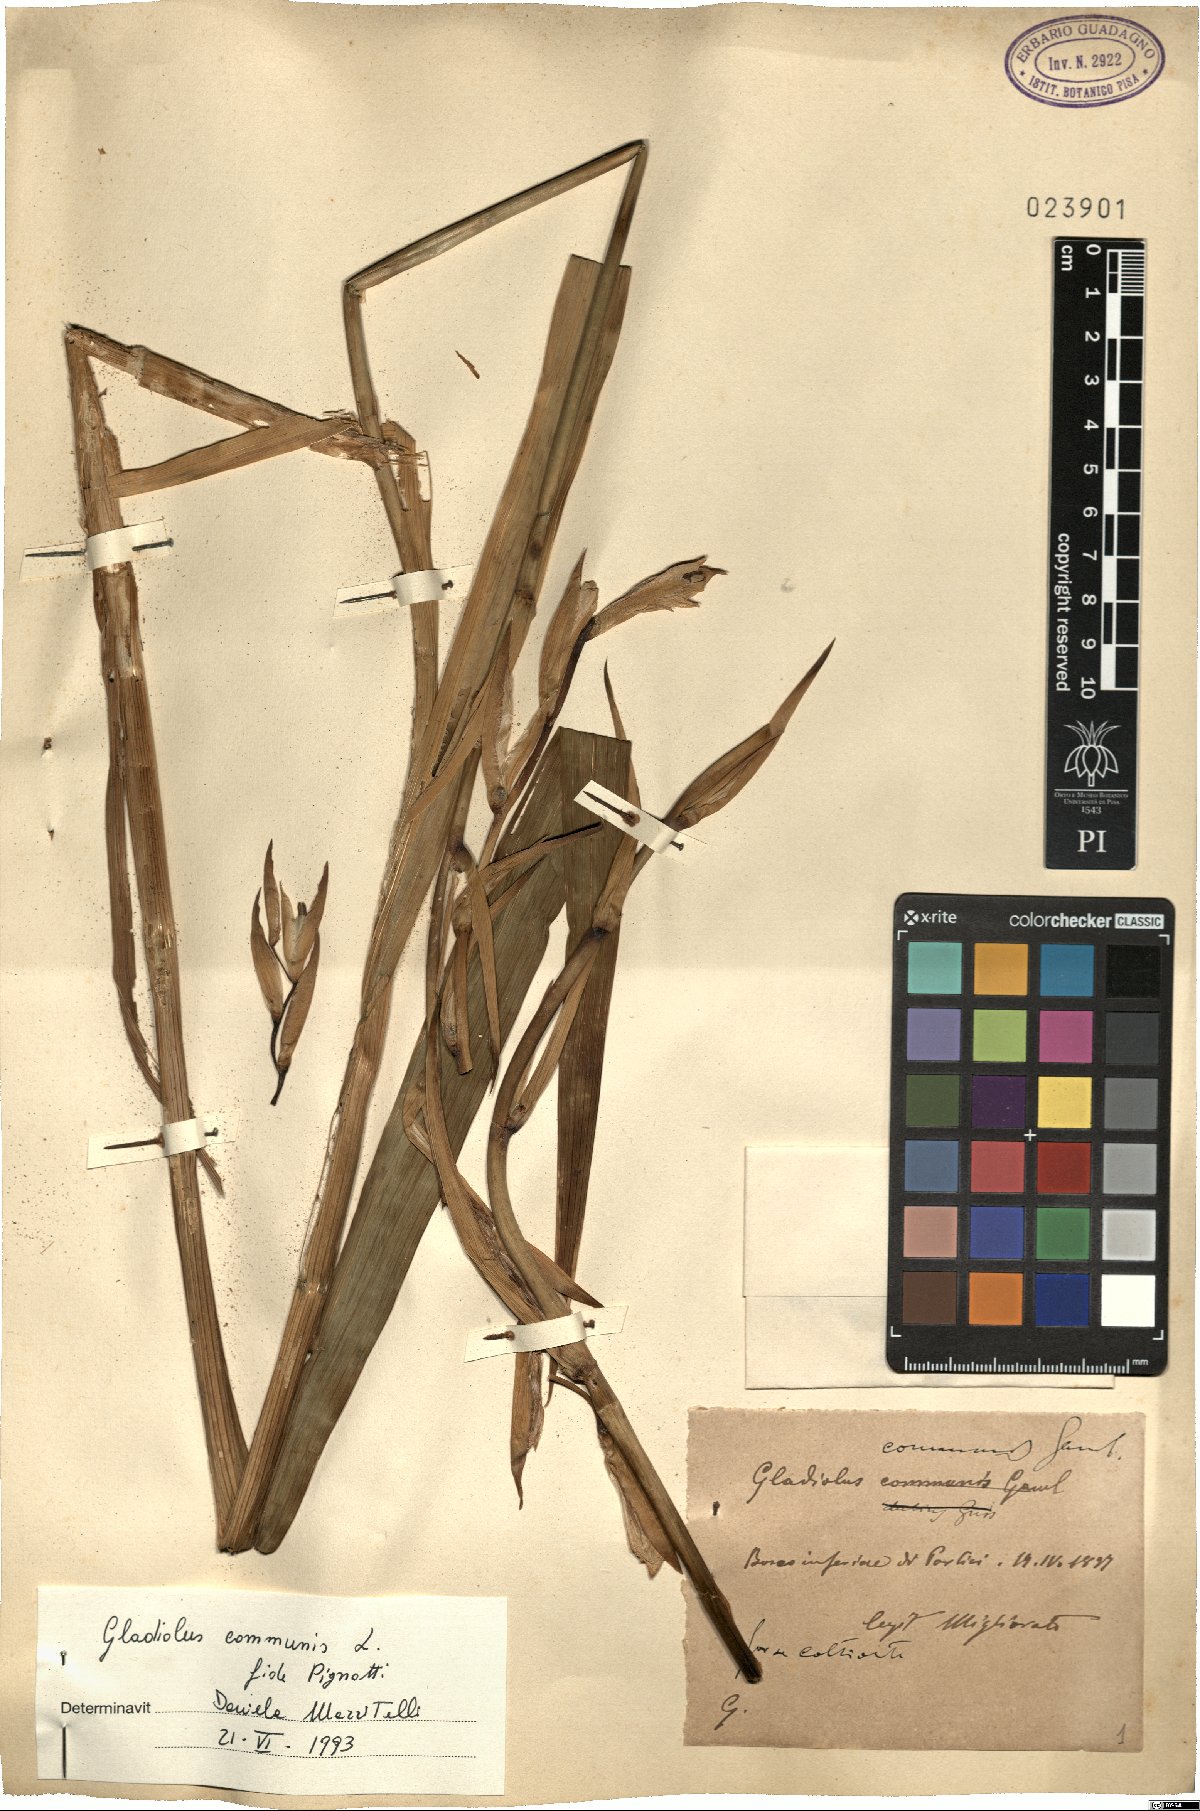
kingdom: Plantae
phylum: Tracheophyta
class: Liliopsida
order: Asparagales
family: Iridaceae
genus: Gladiolus
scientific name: Gladiolus communis
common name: Eastern gladiolus
